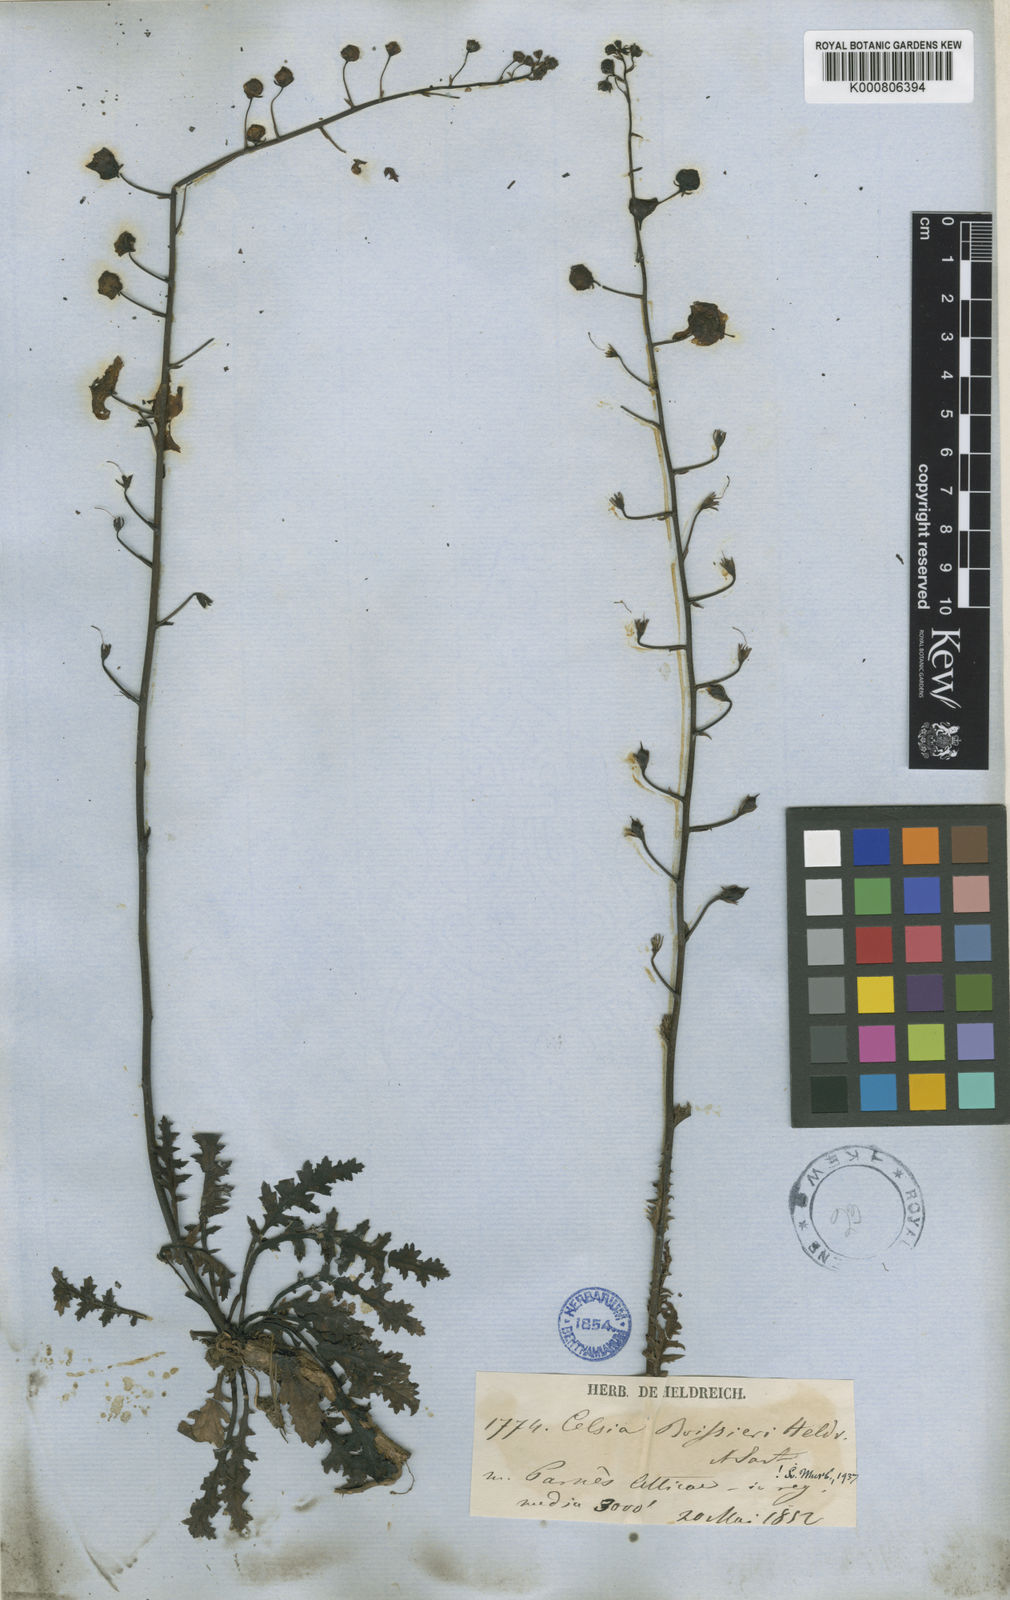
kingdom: Plantae
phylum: Tracheophyta
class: Magnoliopsida
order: Lamiales
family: Scrophulariaceae
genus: Verbascum
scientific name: Verbascum
